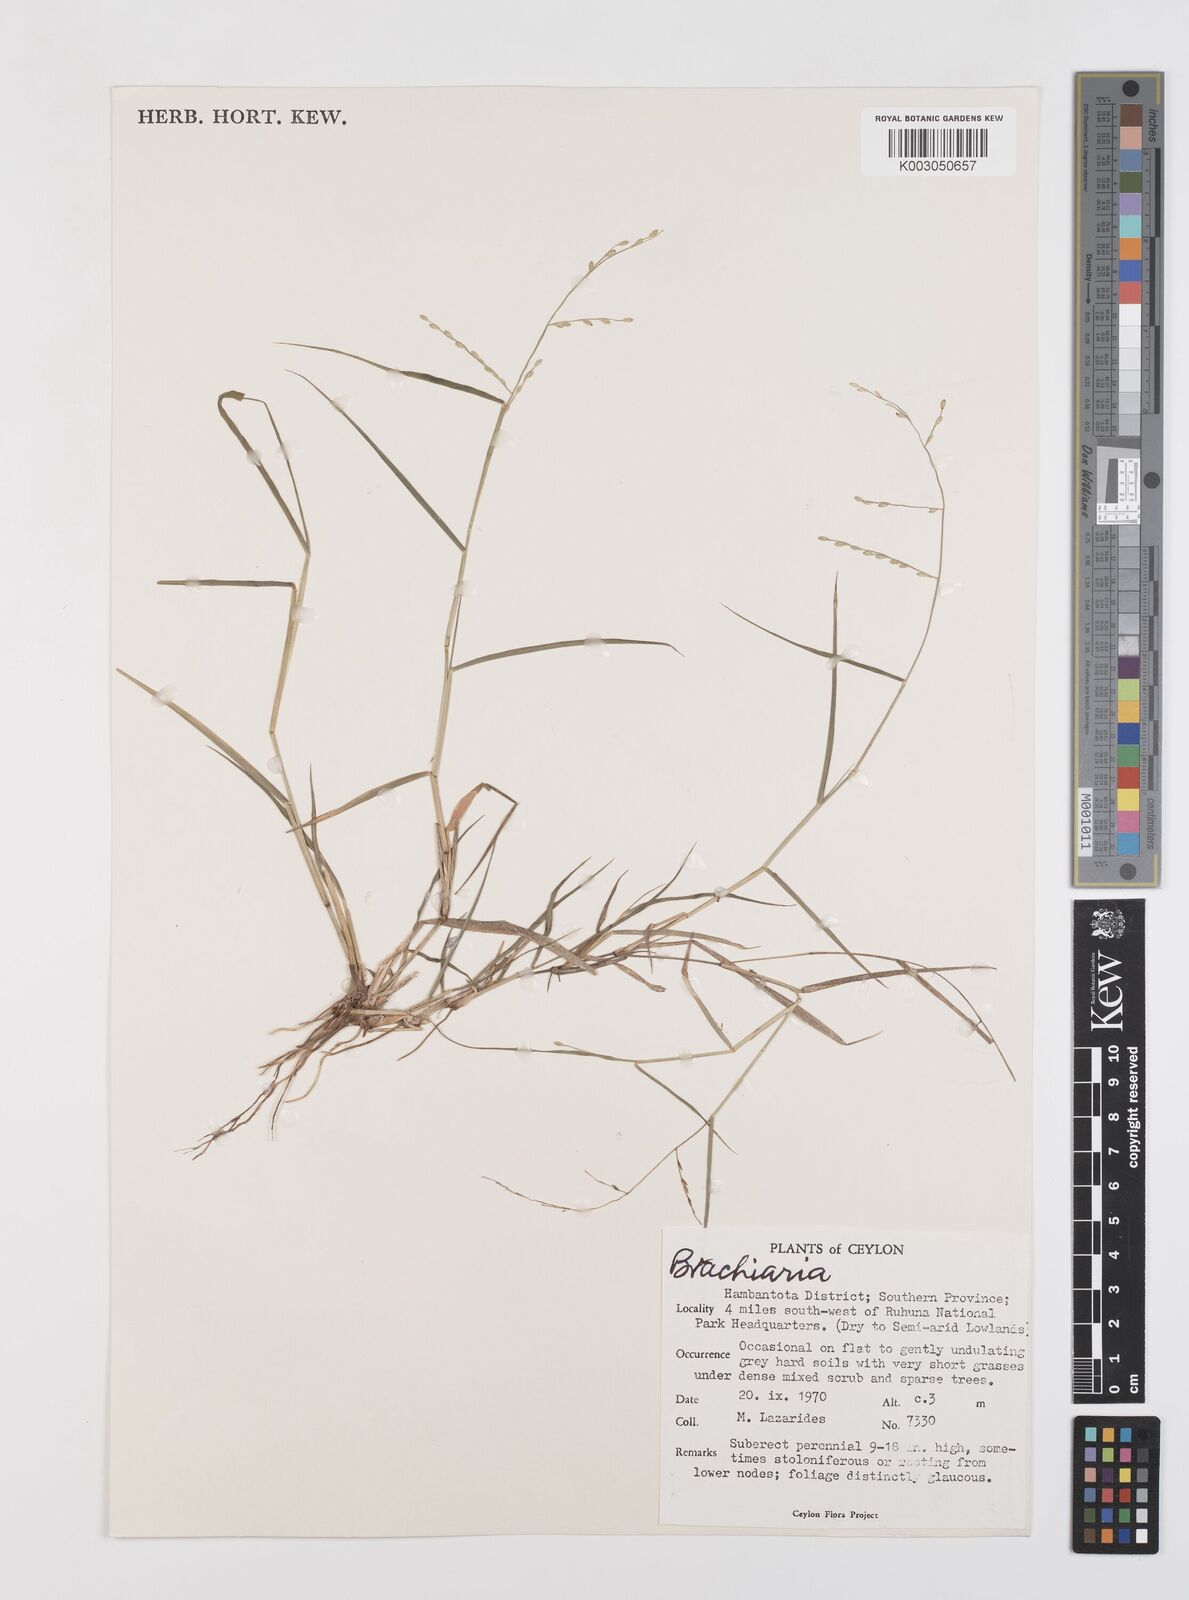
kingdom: Plantae
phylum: Tracheophyta
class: Liliopsida
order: Poales
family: Poaceae
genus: Urochloa
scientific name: Urochloa Brachiaria remota
